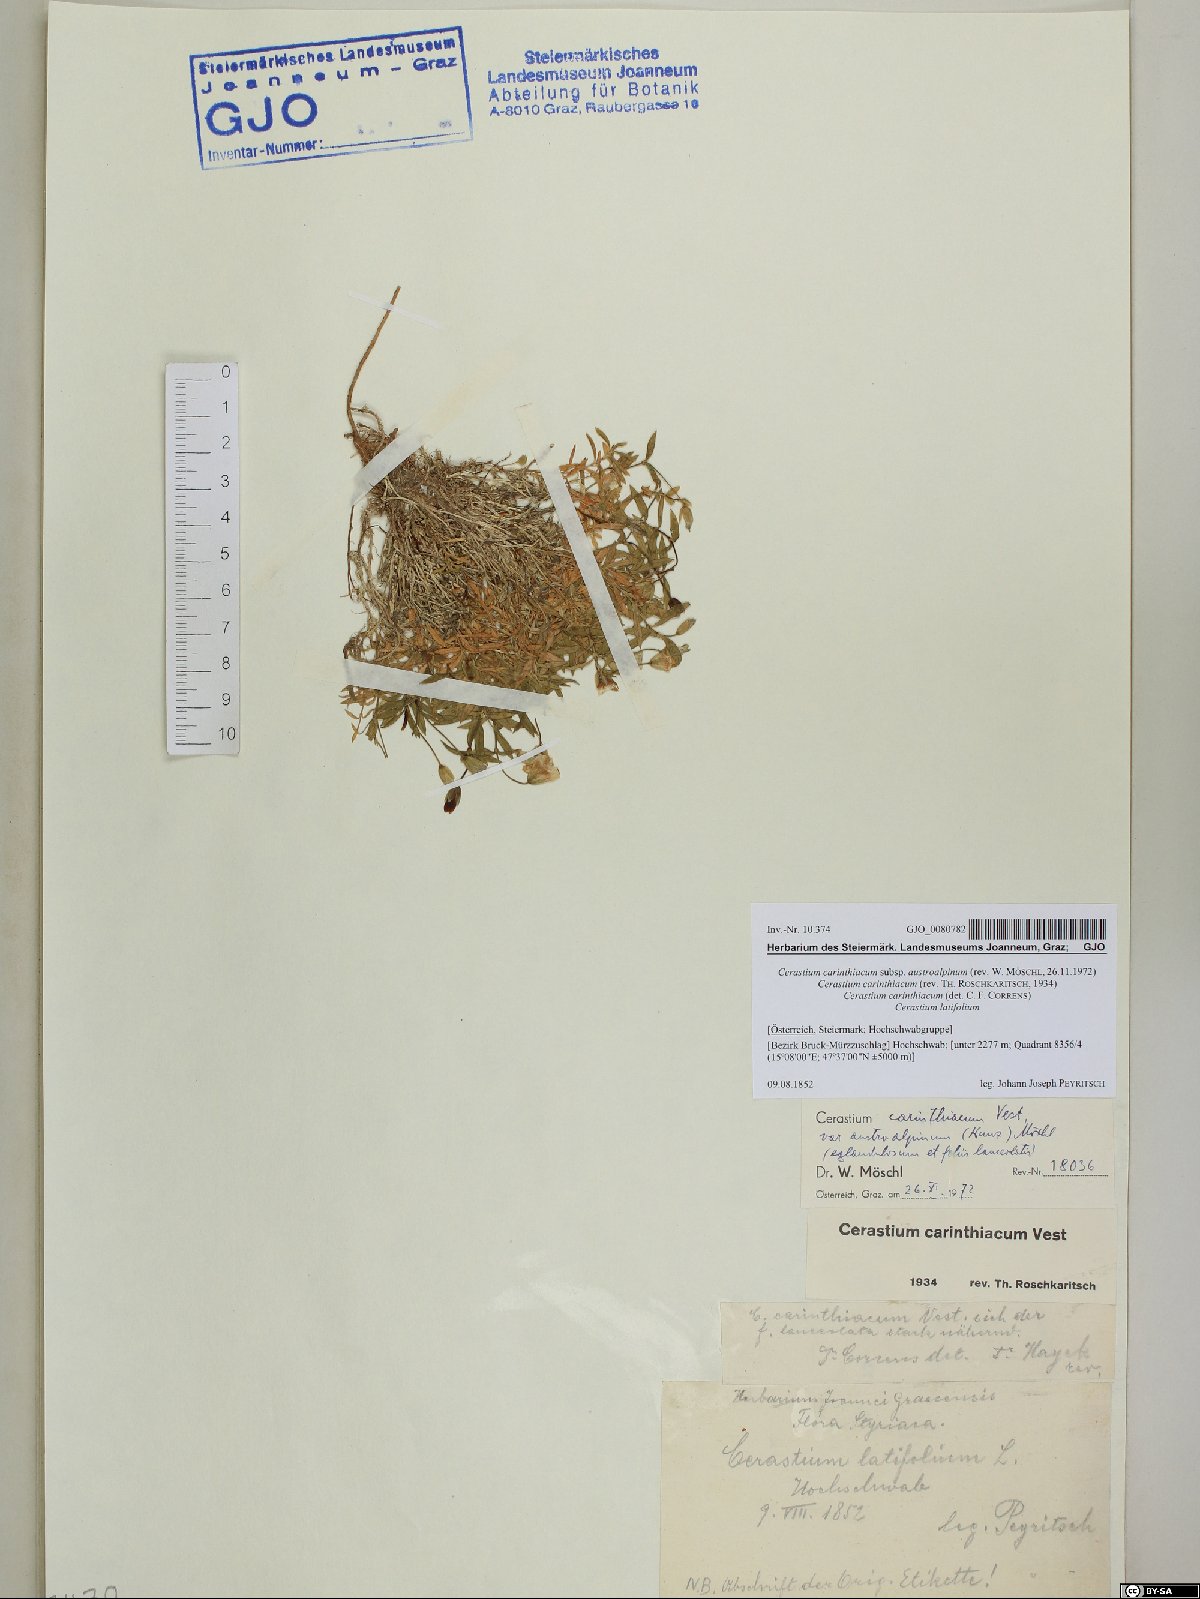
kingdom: Plantae
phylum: Tracheophyta
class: Magnoliopsida
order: Caryophyllales
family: Caryophyllaceae
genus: Cerastium
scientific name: Cerastium carinthiacum
